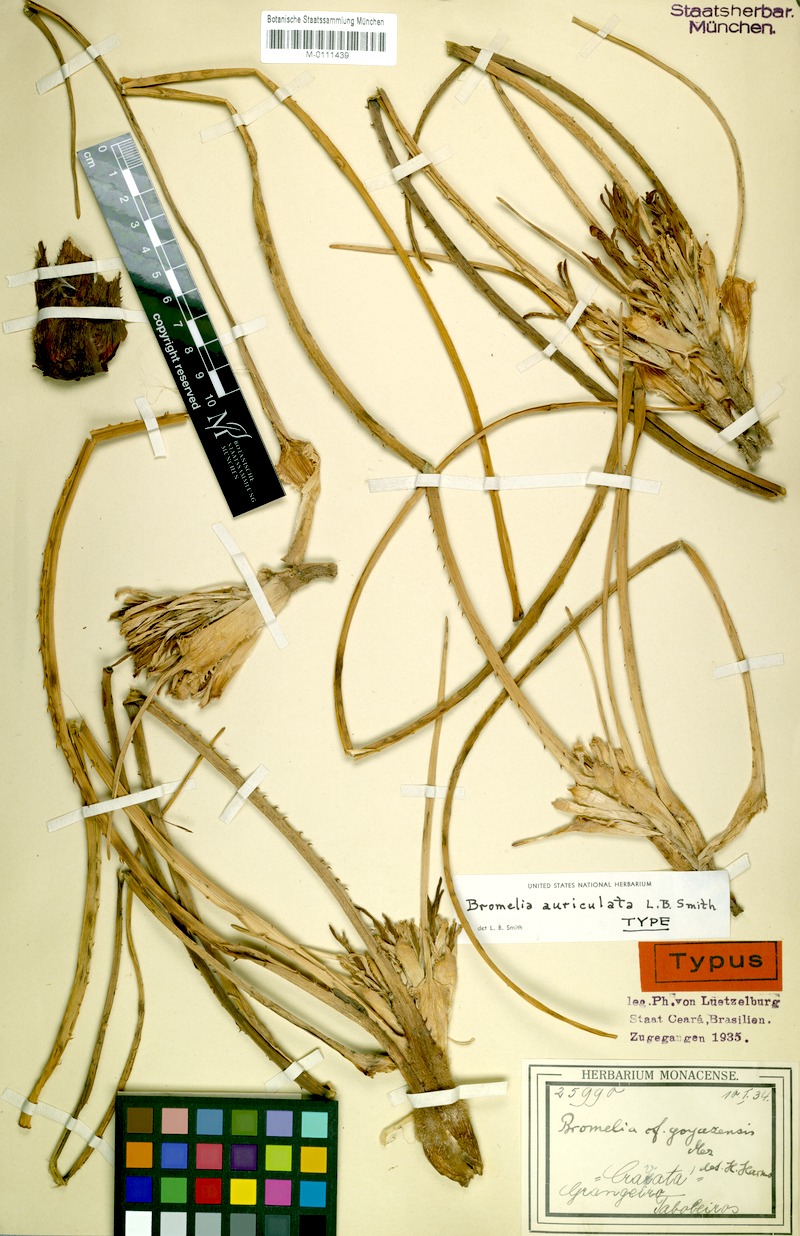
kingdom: Plantae
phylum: Tracheophyta
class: Liliopsida
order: Poales
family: Bromeliaceae
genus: Bromelia
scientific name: Bromelia auriculata
